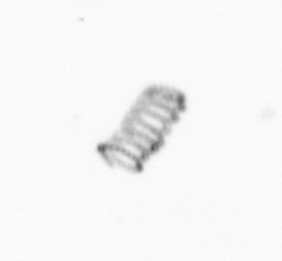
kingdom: Chromista
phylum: Ochrophyta
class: Bacillariophyceae
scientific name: Bacillariophyceae
